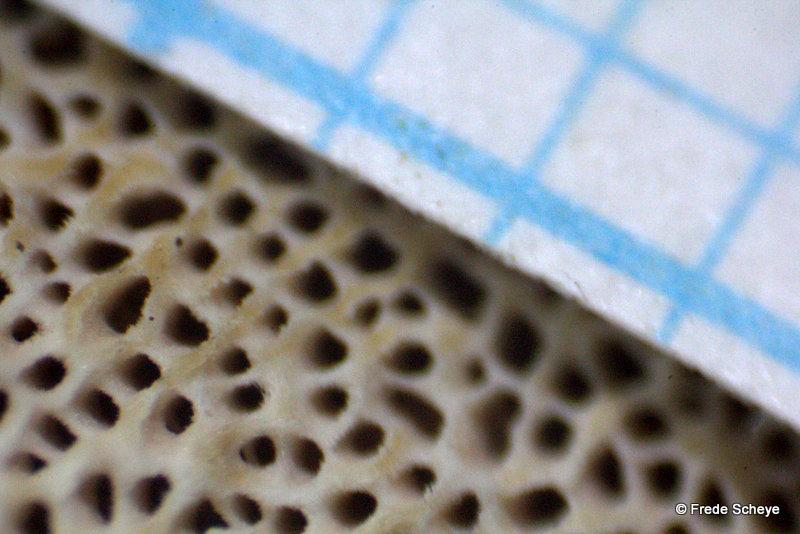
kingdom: Fungi
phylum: Basidiomycota
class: Agaricomycetes
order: Polyporales
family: Polyporaceae
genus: Cerioporus
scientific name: Cerioporus varius
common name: foranderlig stilkporesvamp
